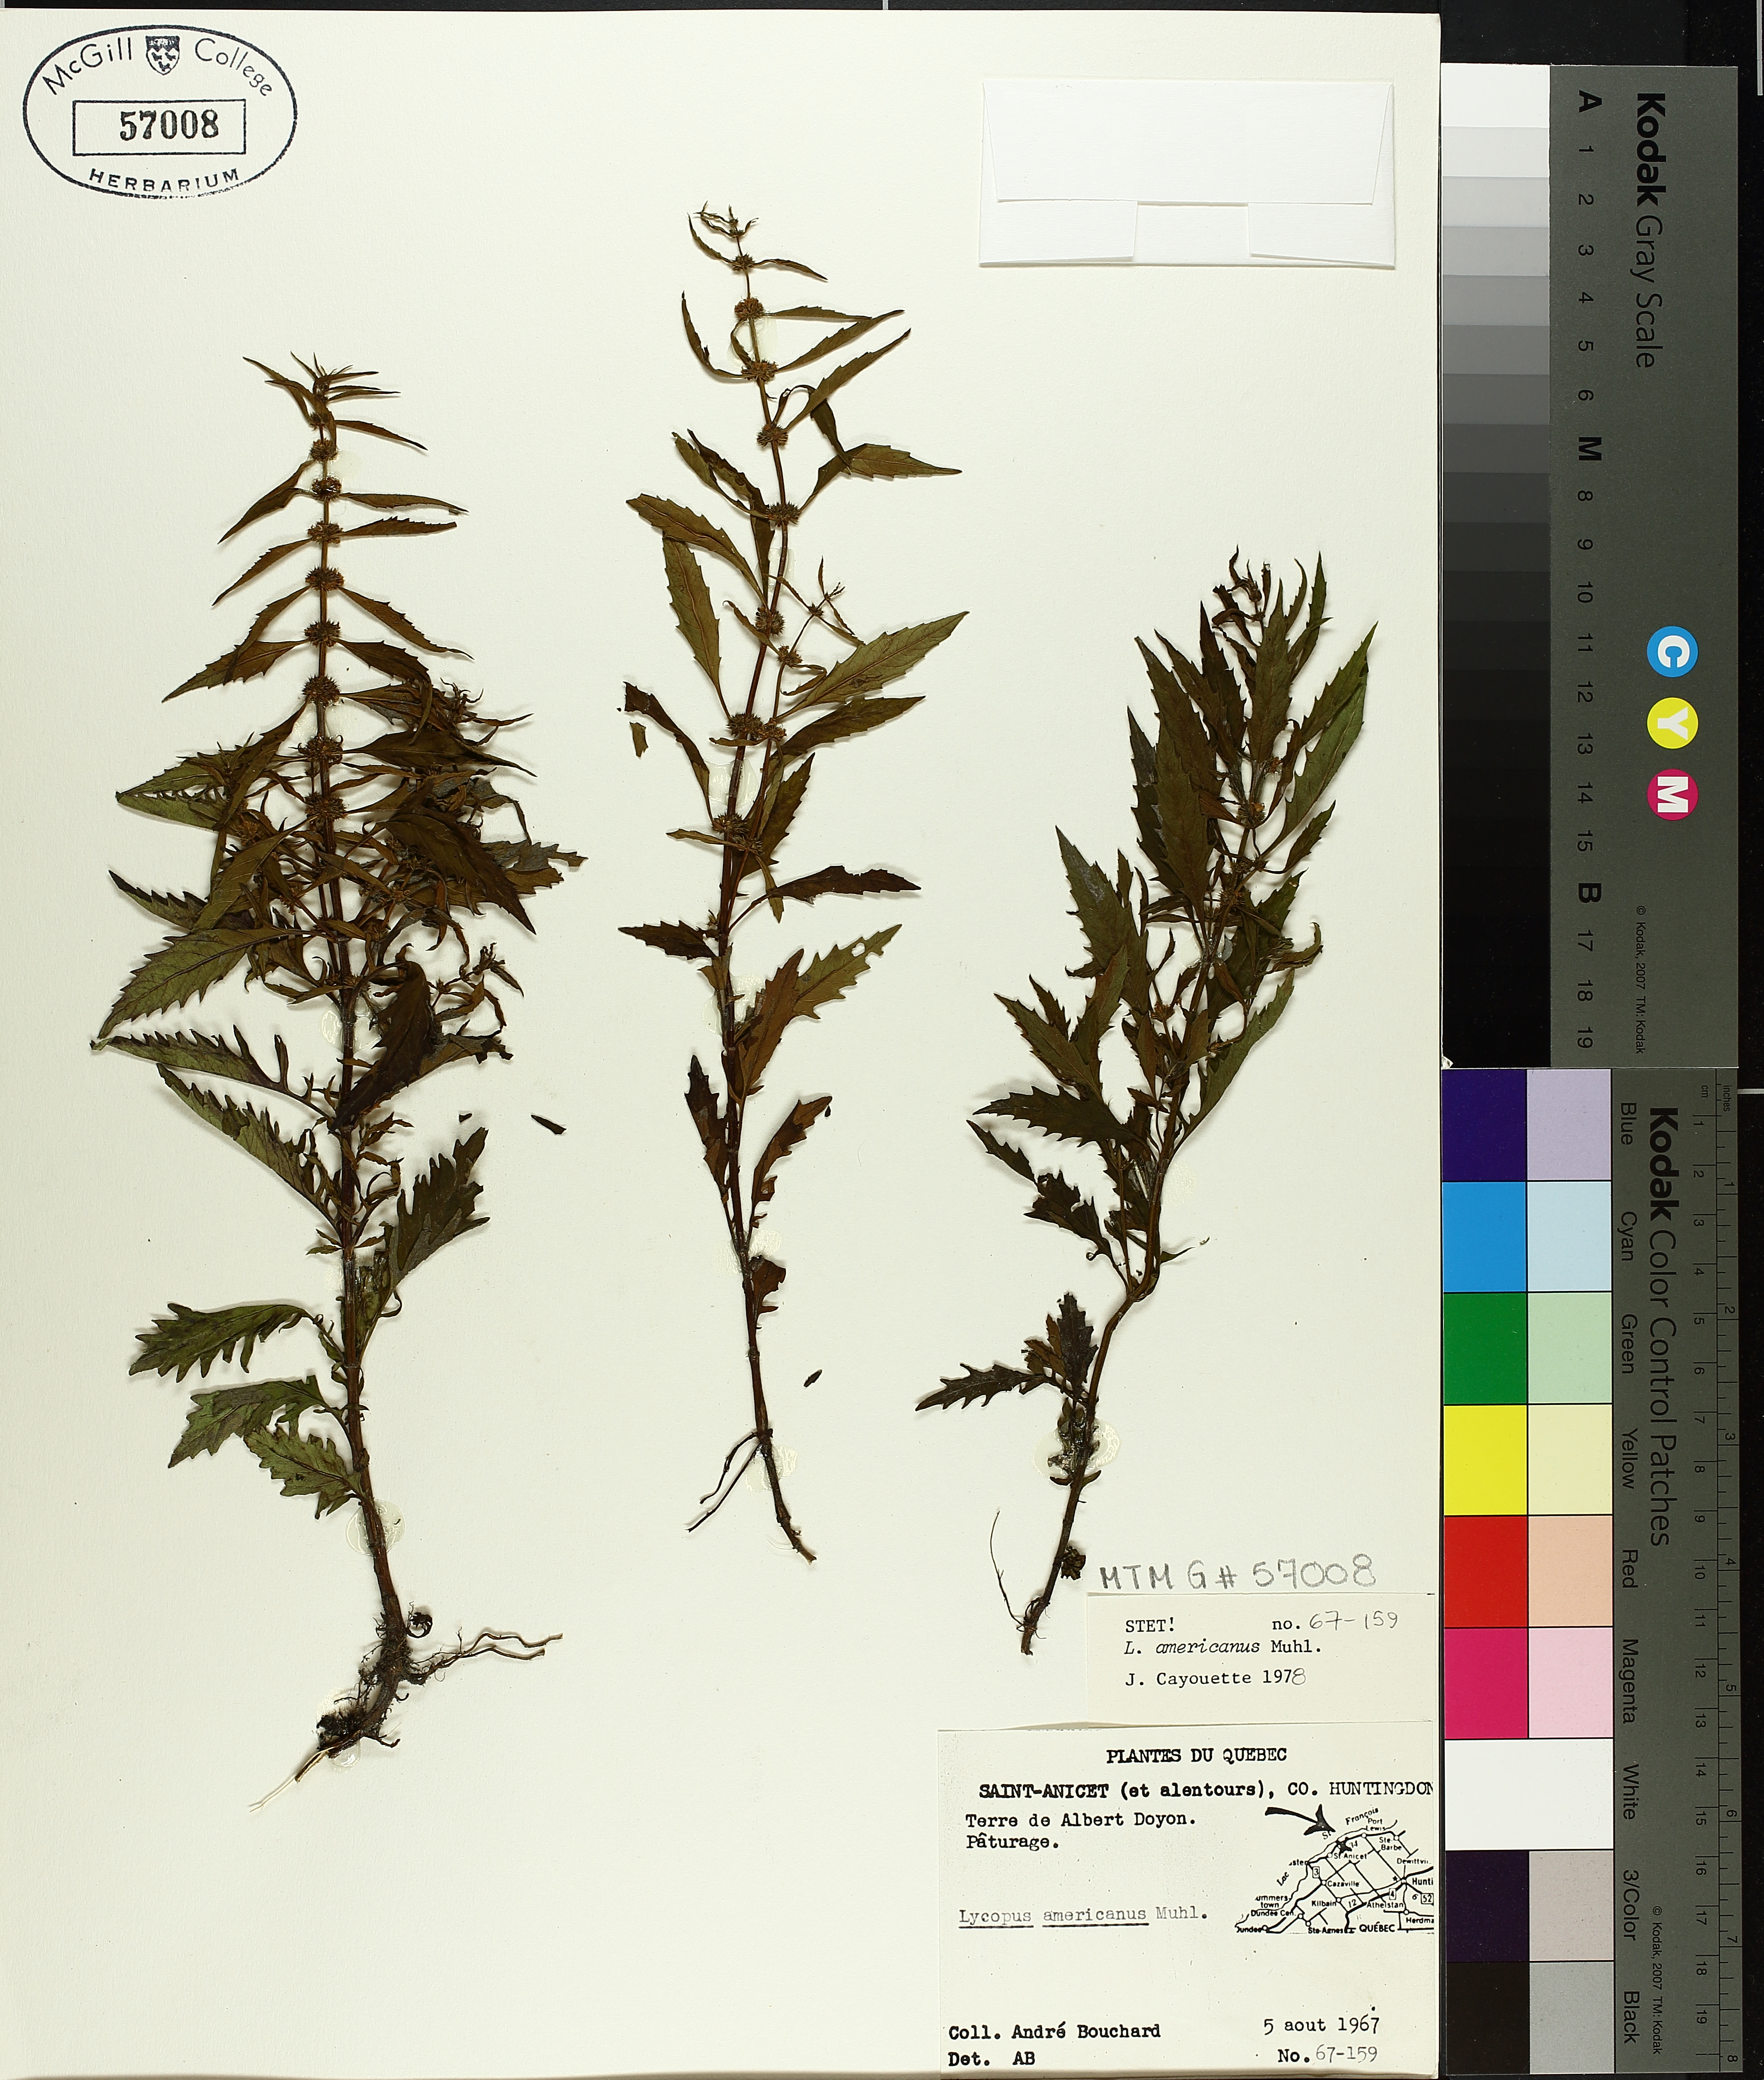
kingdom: Plantae
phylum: Tracheophyta
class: Magnoliopsida
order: Lamiales
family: Lamiaceae
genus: Lycopus
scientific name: Lycopus americanus
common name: American bugleweed
